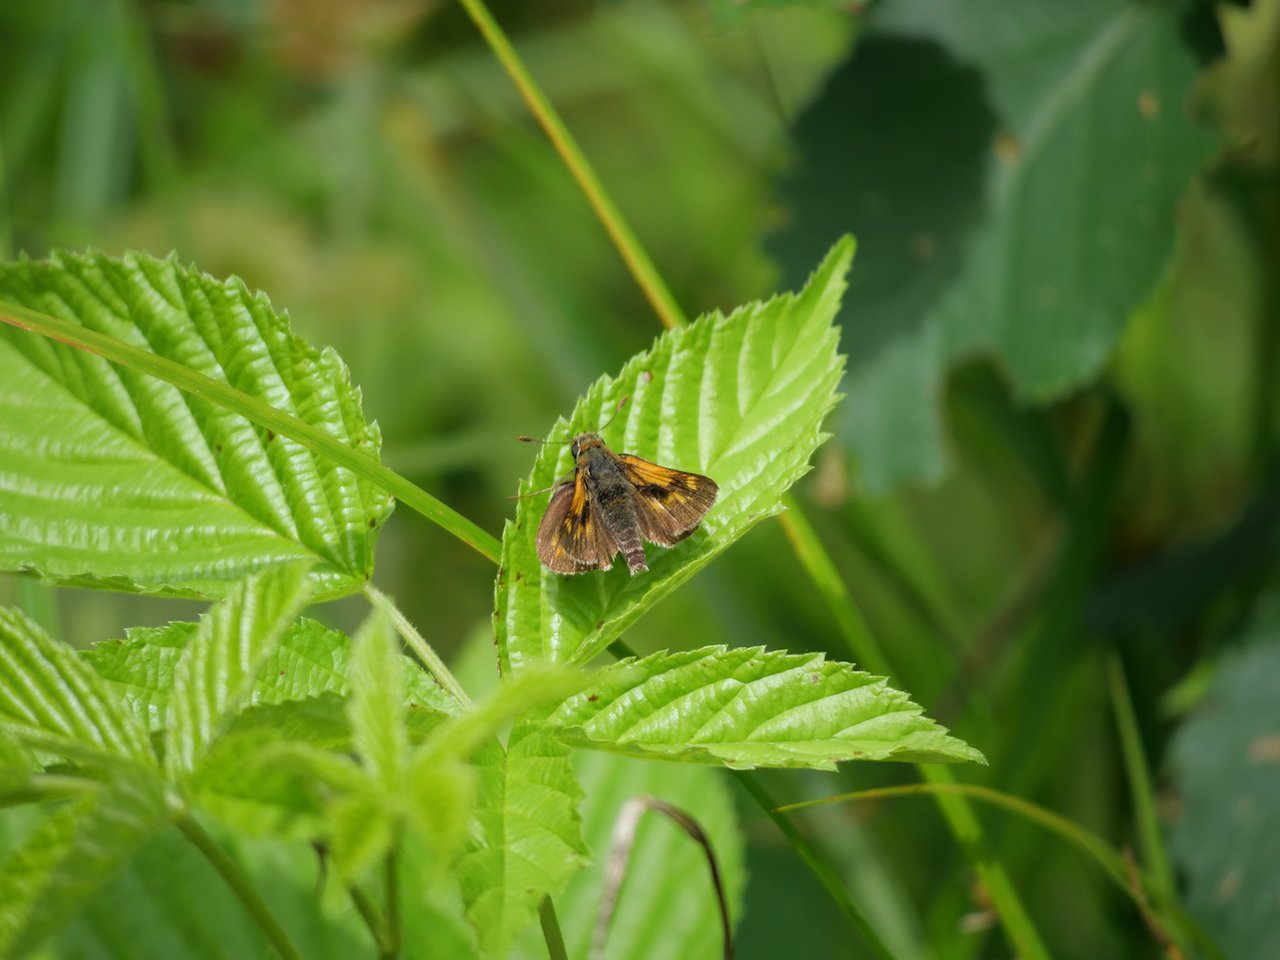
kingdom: Animalia
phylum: Arthropoda
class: Insecta
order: Lepidoptera
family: Hesperiidae
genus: Polites
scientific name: Polites
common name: Long Dash Skipper
